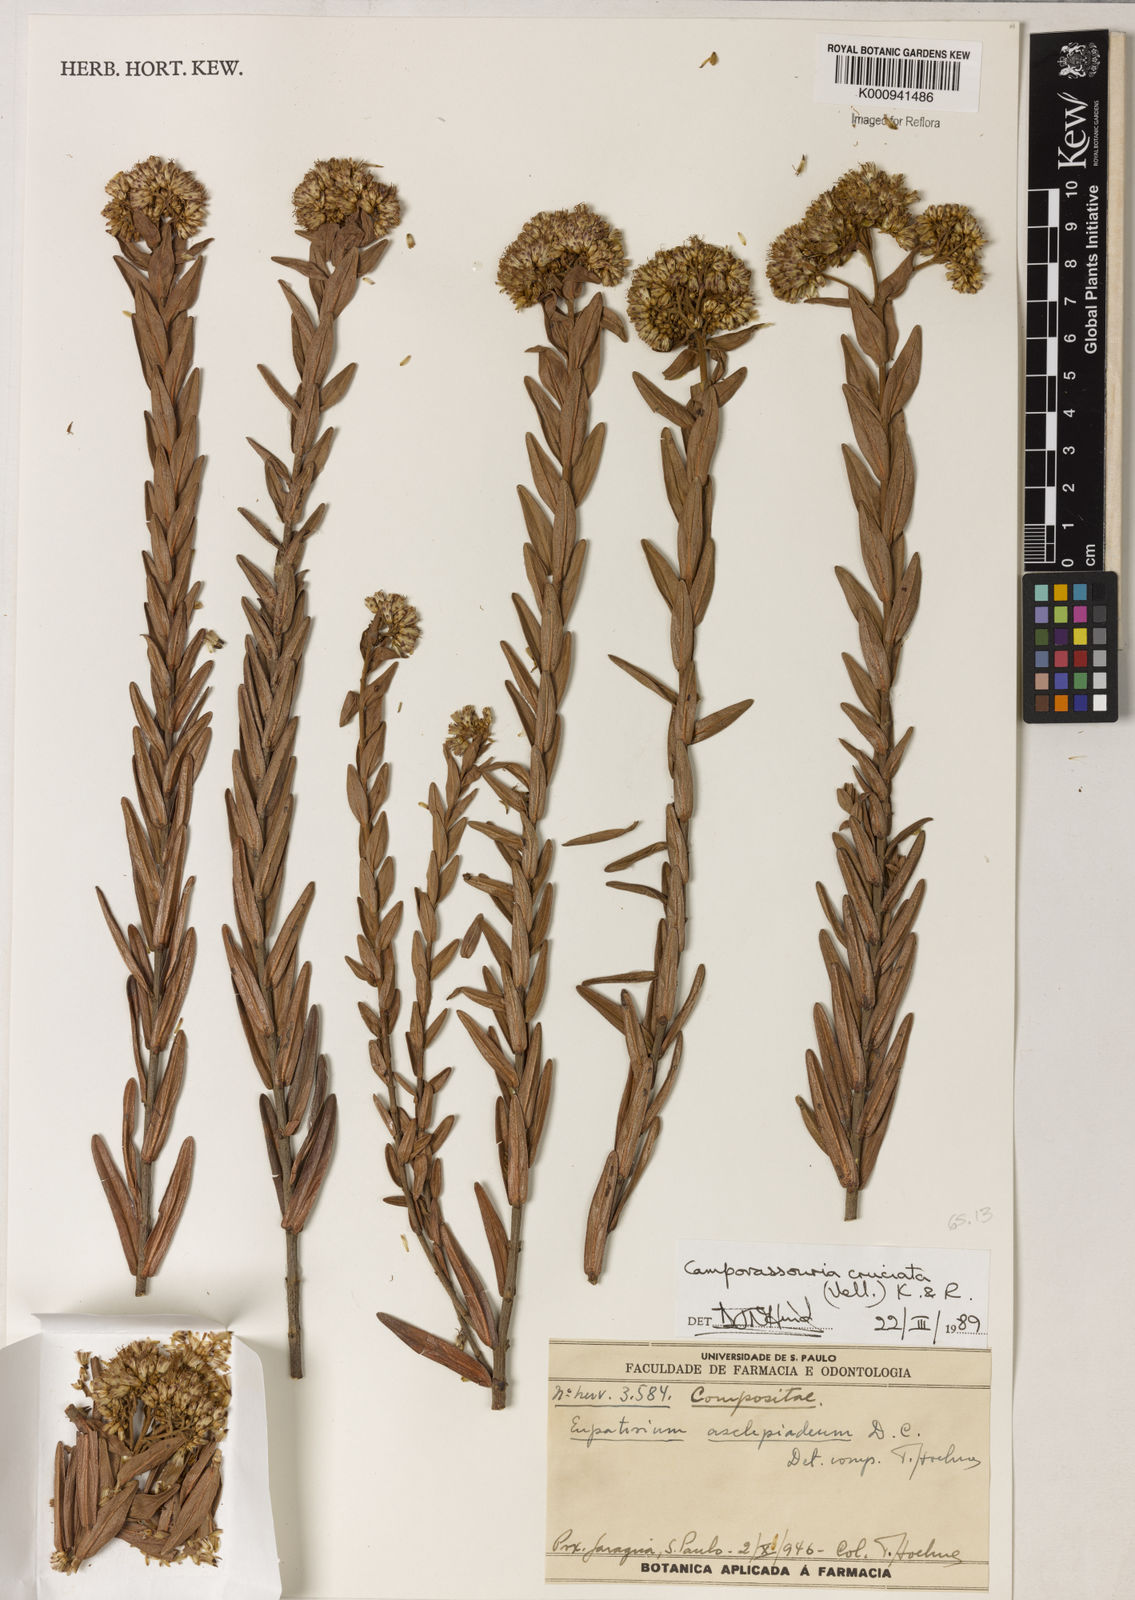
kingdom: Plantae
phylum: Tracheophyta
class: Magnoliopsida
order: Asterales
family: Asteraceae
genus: Campovassouria
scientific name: Campovassouria cruciata
